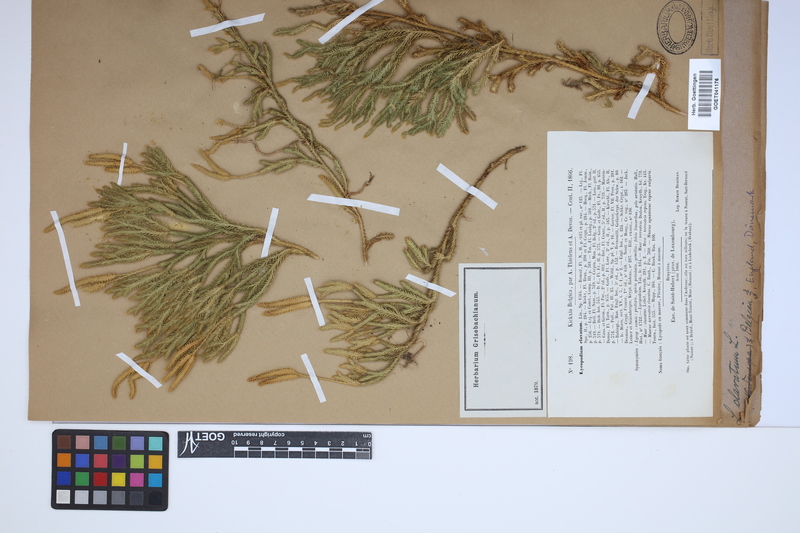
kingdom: Plantae
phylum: Tracheophyta
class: Lycopodiopsida
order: Lycopodiales
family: Lycopodiaceae
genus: Lycopodium
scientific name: Lycopodium clavatum
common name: Stag's-horn clubmoss
